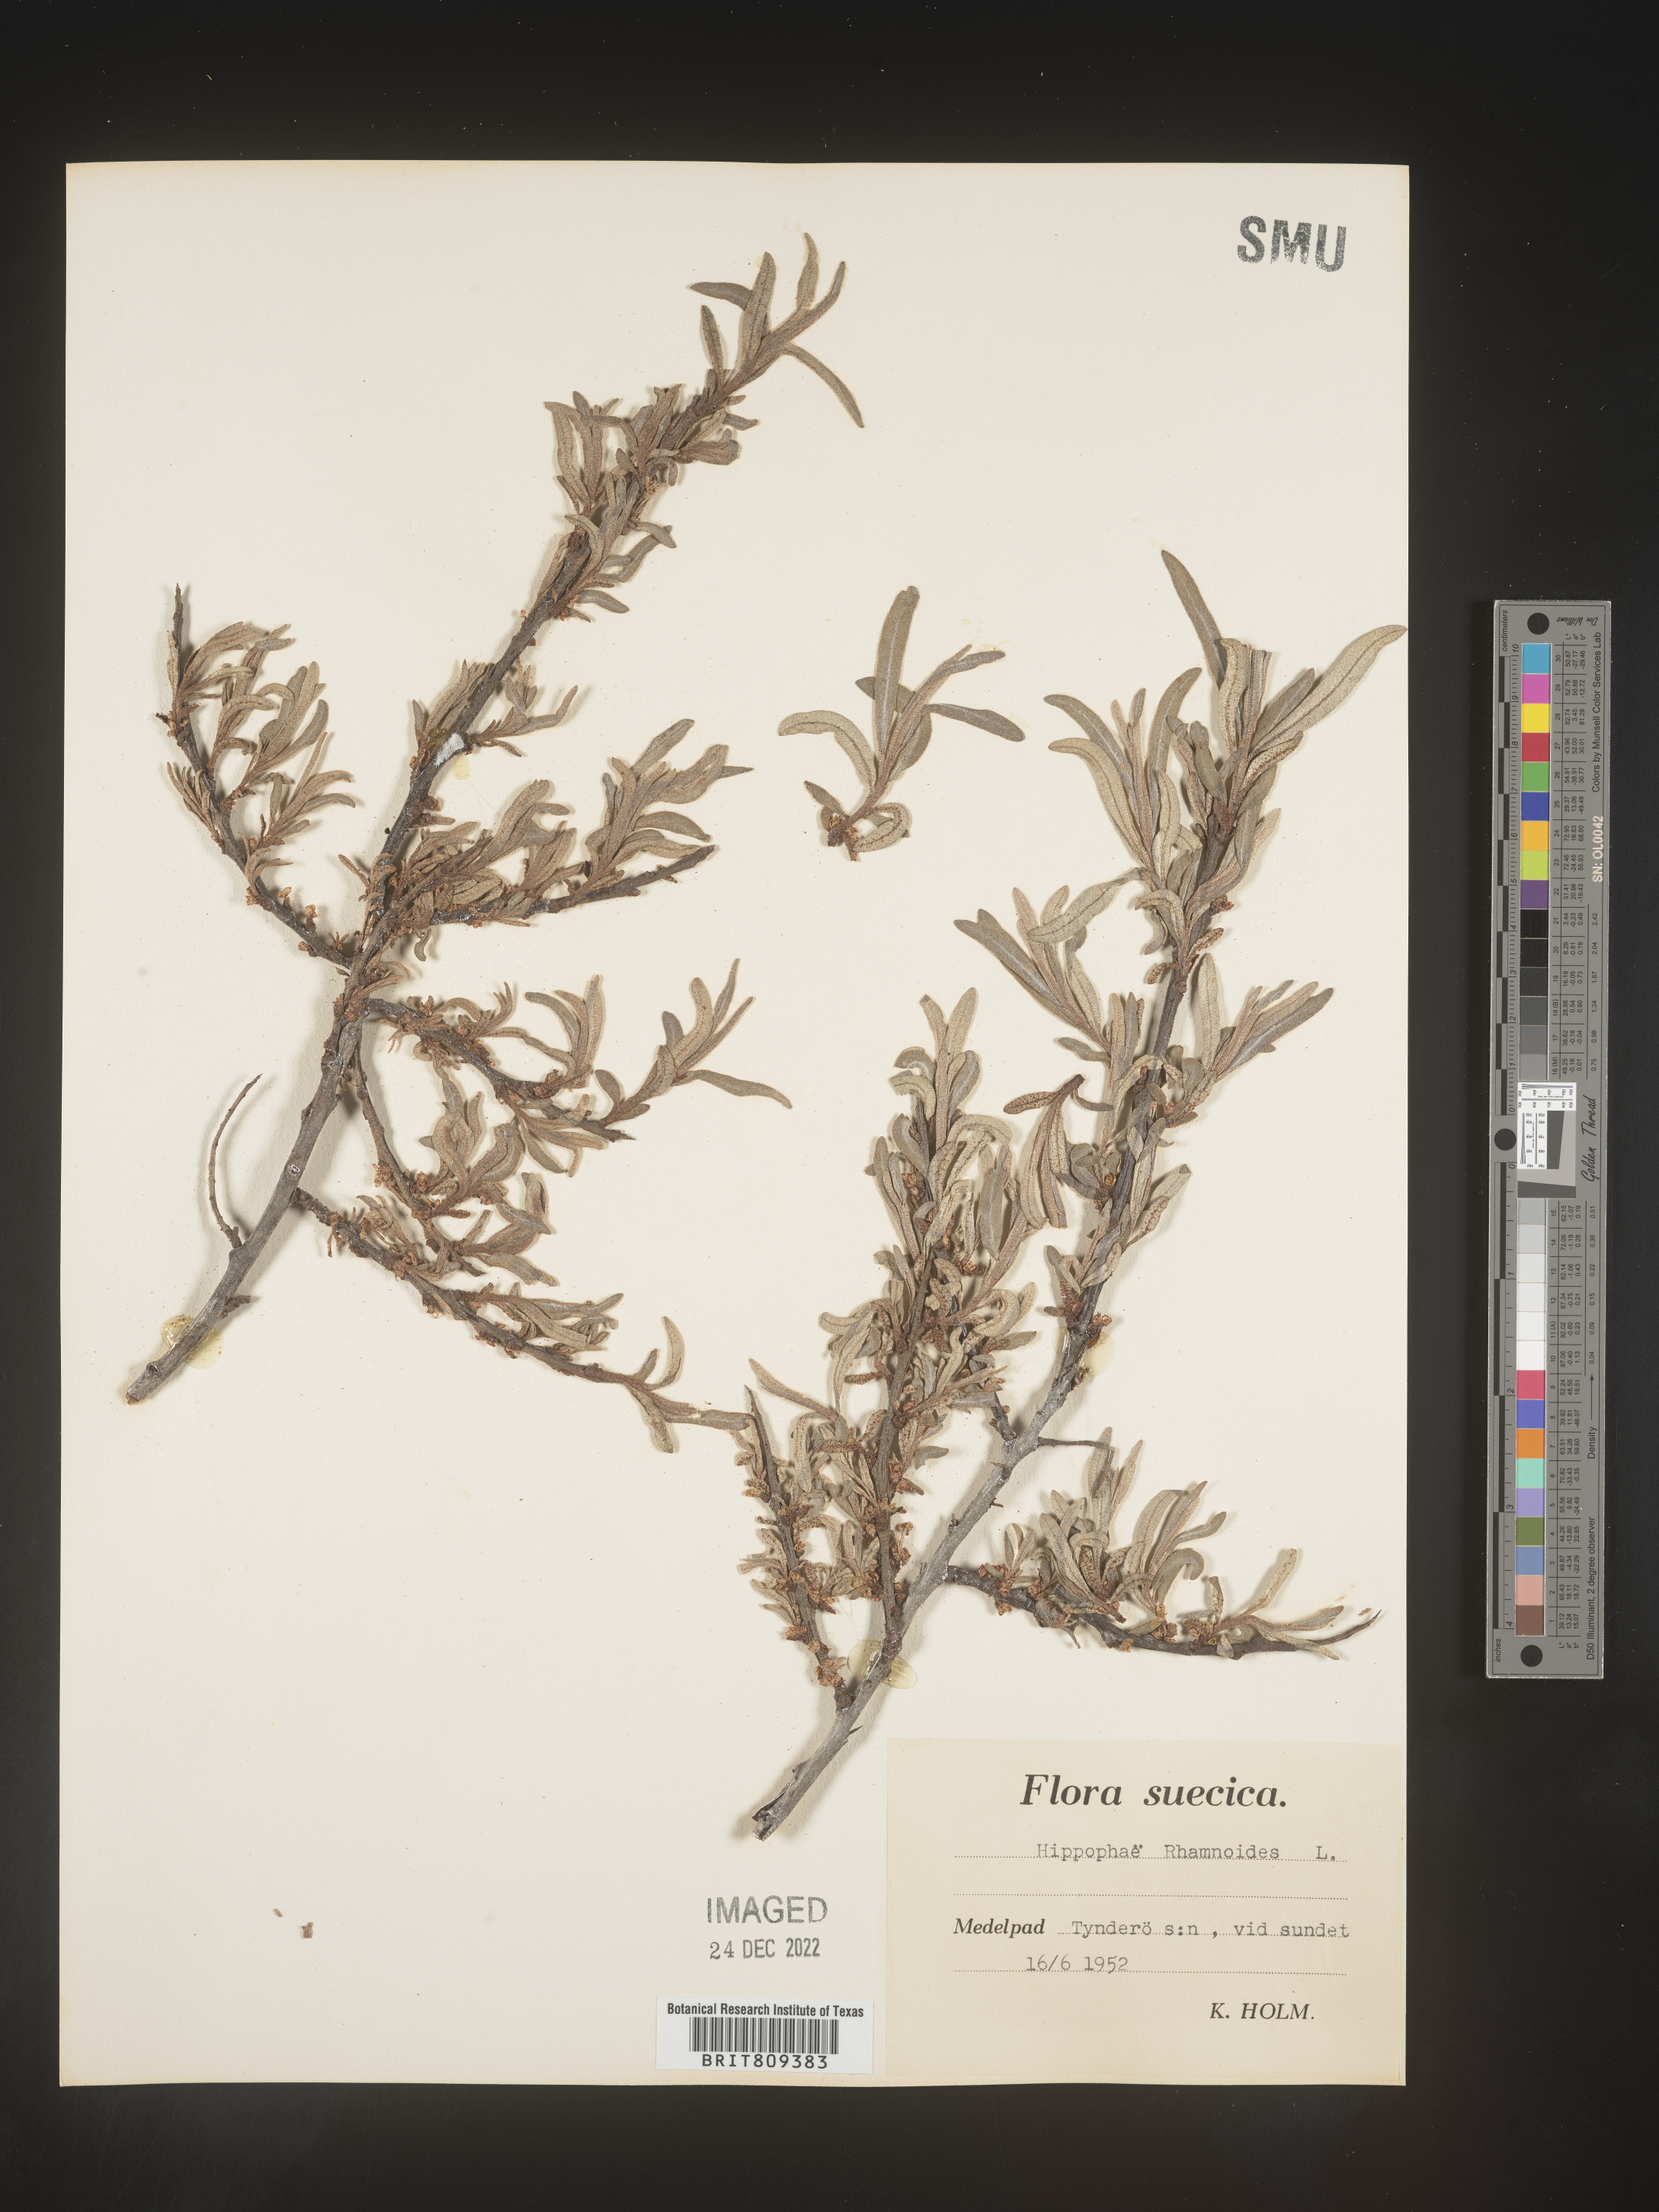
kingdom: Plantae
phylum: Tracheophyta
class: Magnoliopsida
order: Rosales
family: Elaeagnaceae
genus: Hippophae
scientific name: Hippophae
